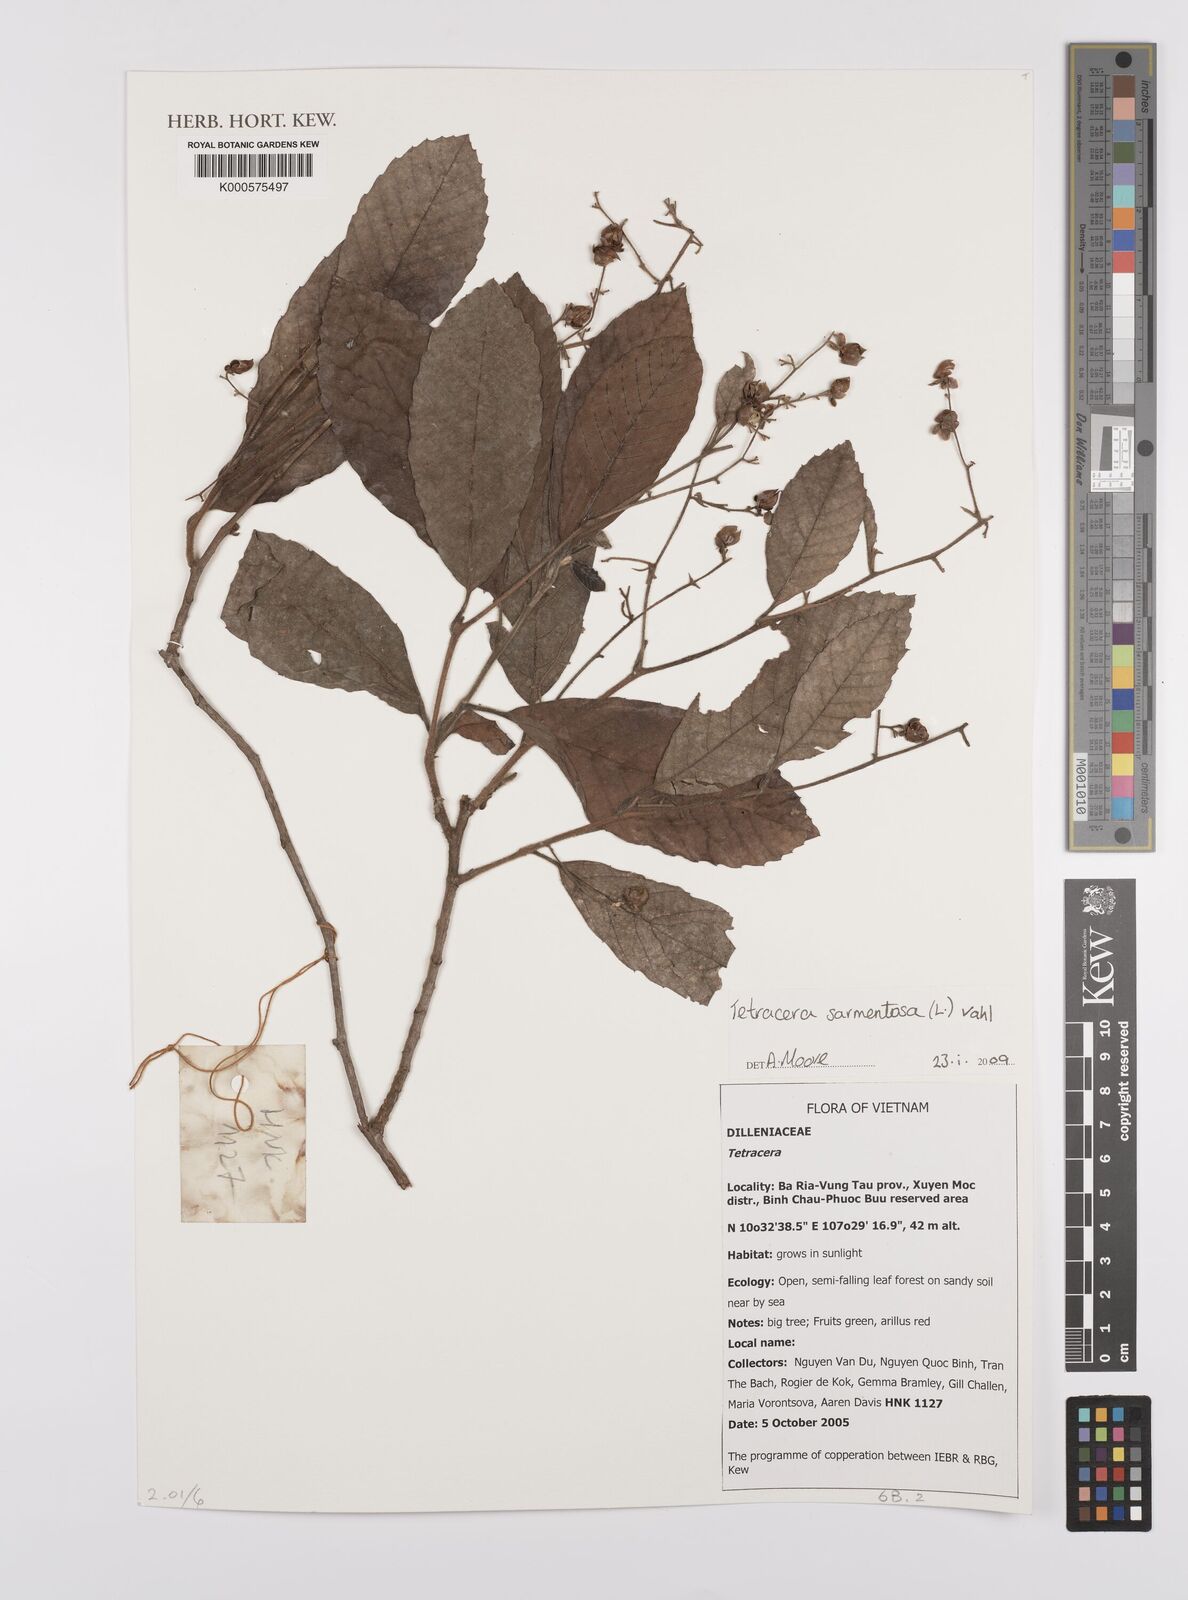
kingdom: Plantae
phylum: Tracheophyta
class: Magnoliopsida
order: Dilleniales
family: Dilleniaceae
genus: Tetracera
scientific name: Tetracera sarmentosa
